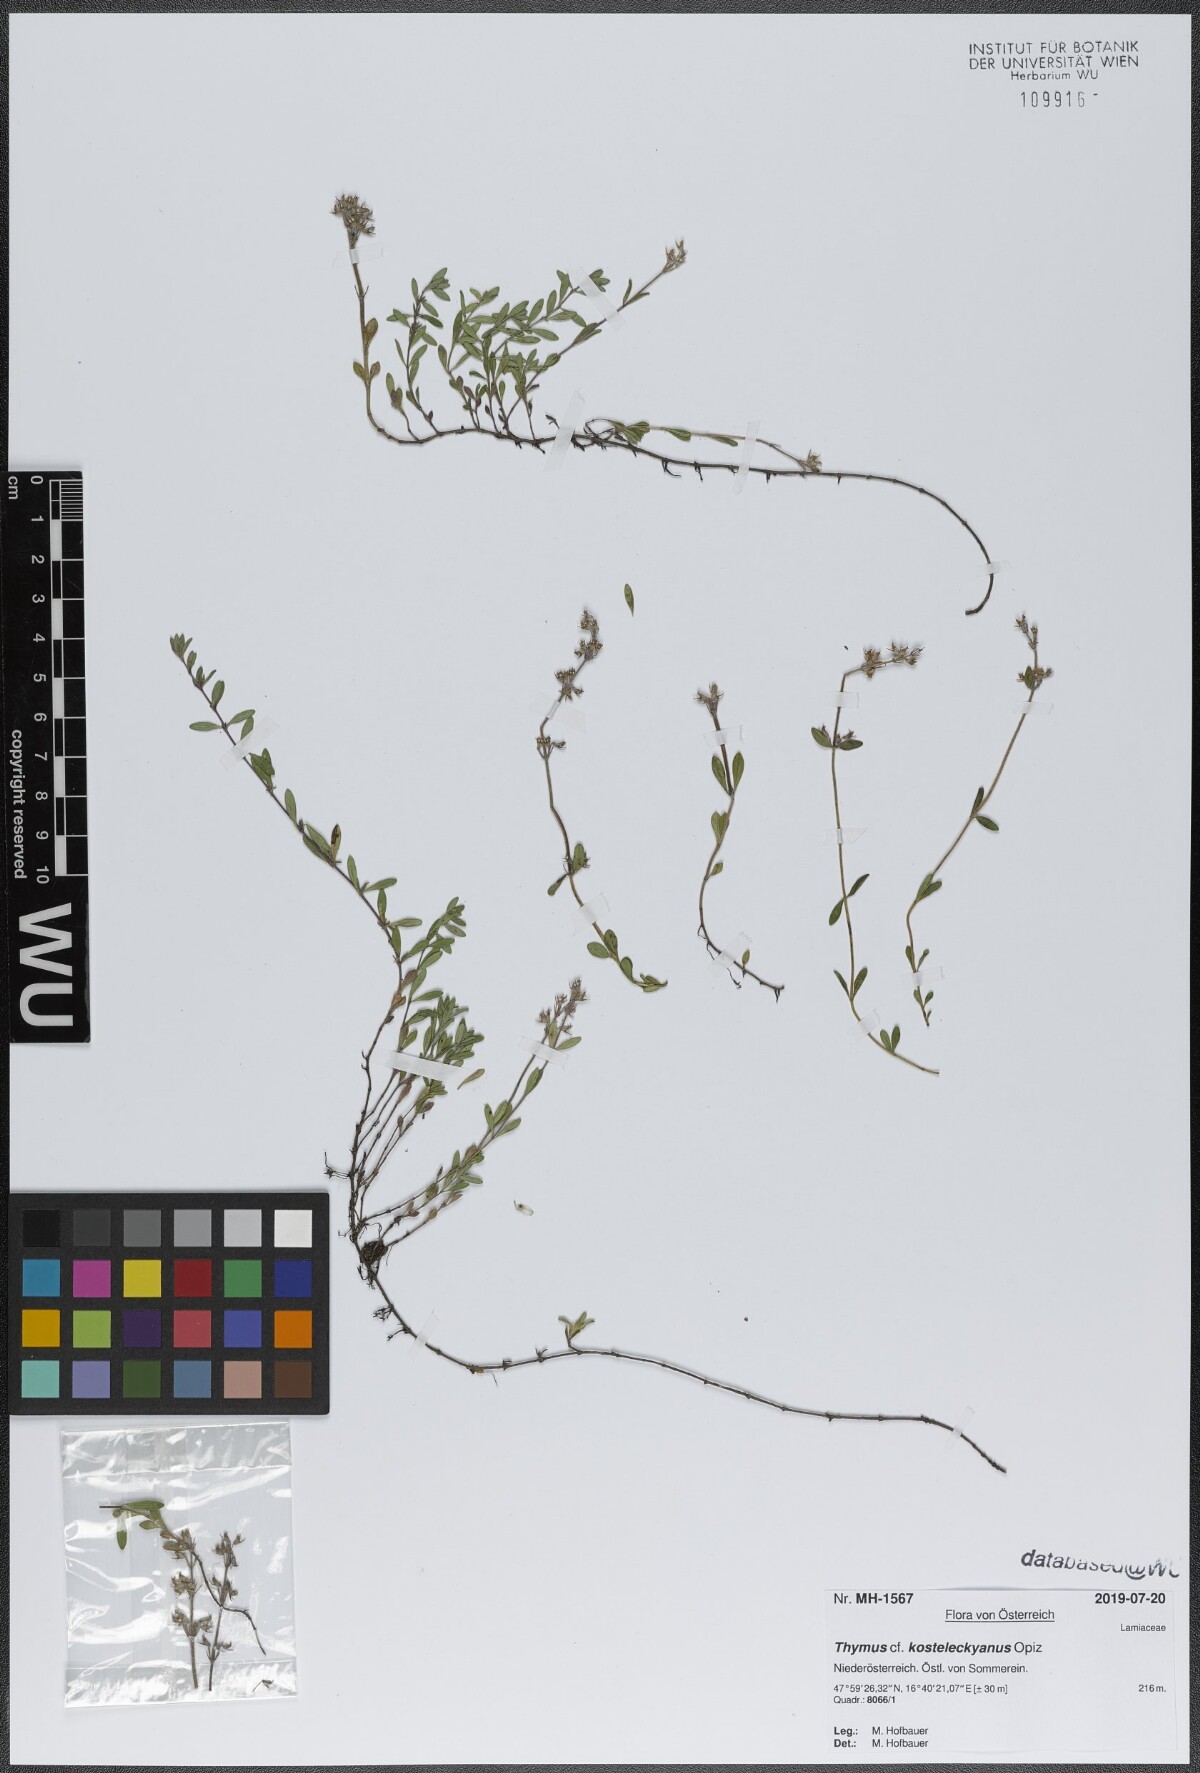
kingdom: Plantae
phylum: Tracheophyta
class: Magnoliopsida
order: Lamiales
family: Lamiaceae
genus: Thymus
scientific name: Thymus kosteleckyanus
